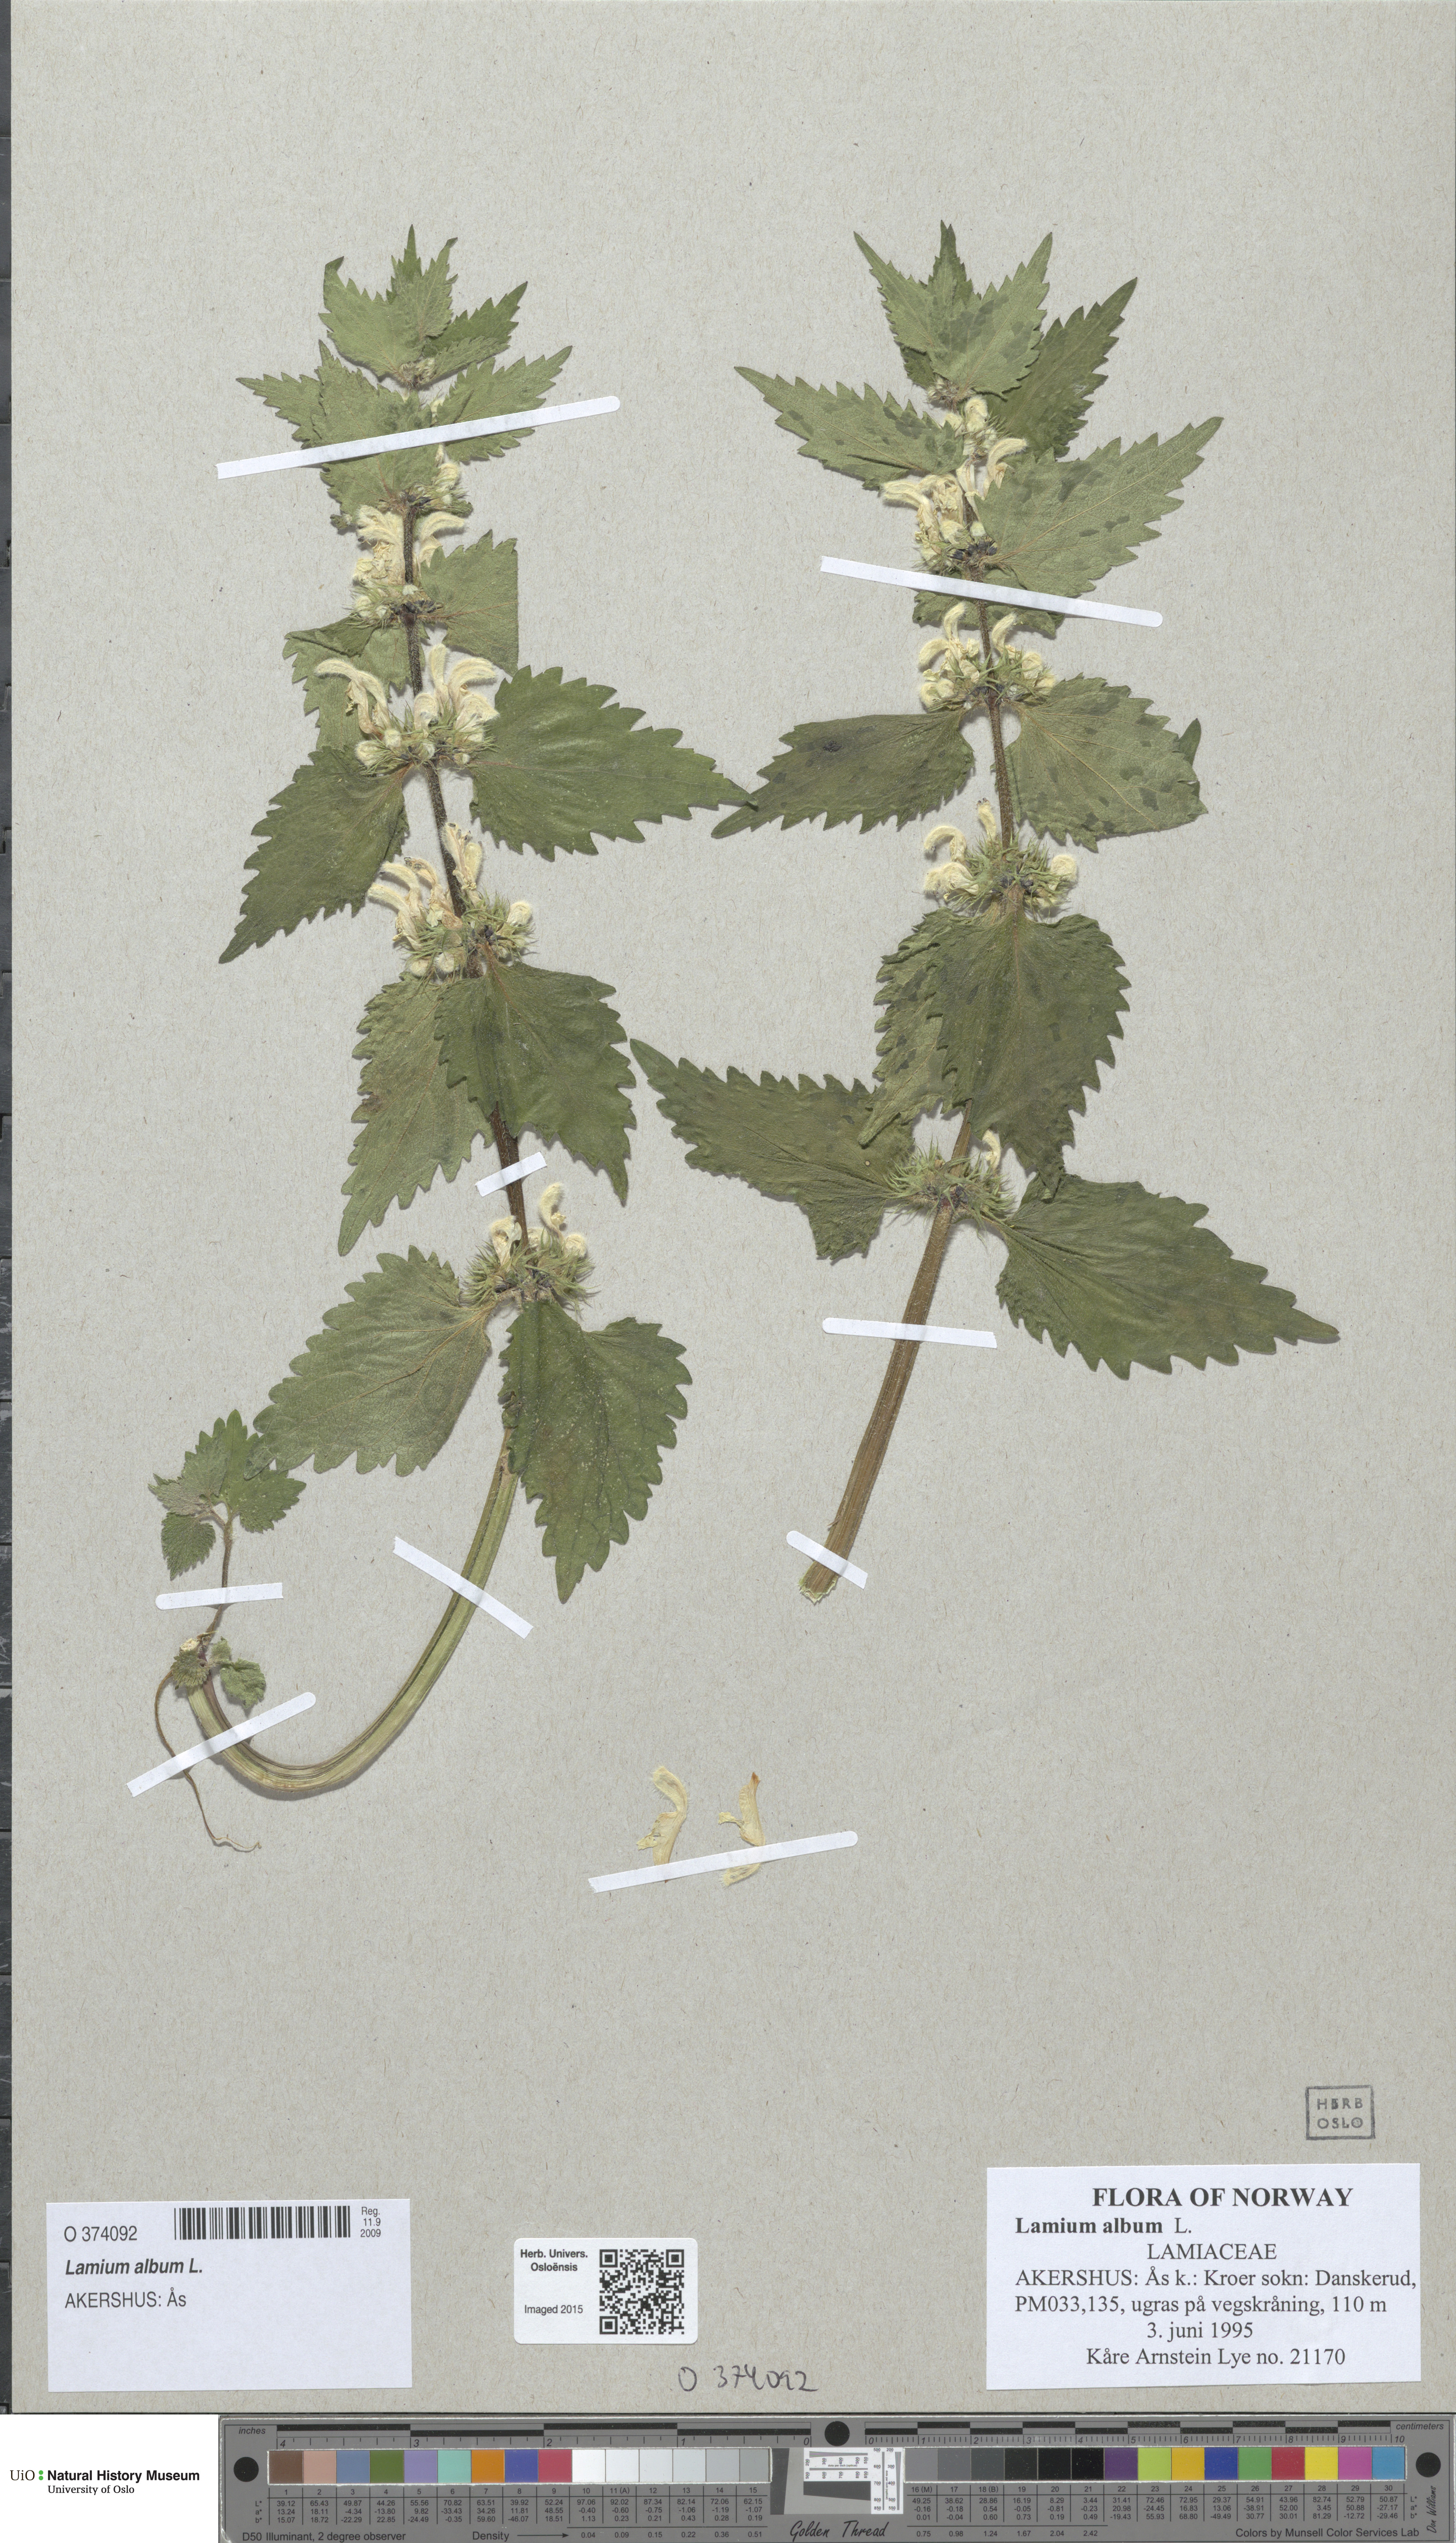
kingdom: Plantae
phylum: Tracheophyta
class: Magnoliopsida
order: Lamiales
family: Lamiaceae
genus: Lamium
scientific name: Lamium album
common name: White dead-nettle
